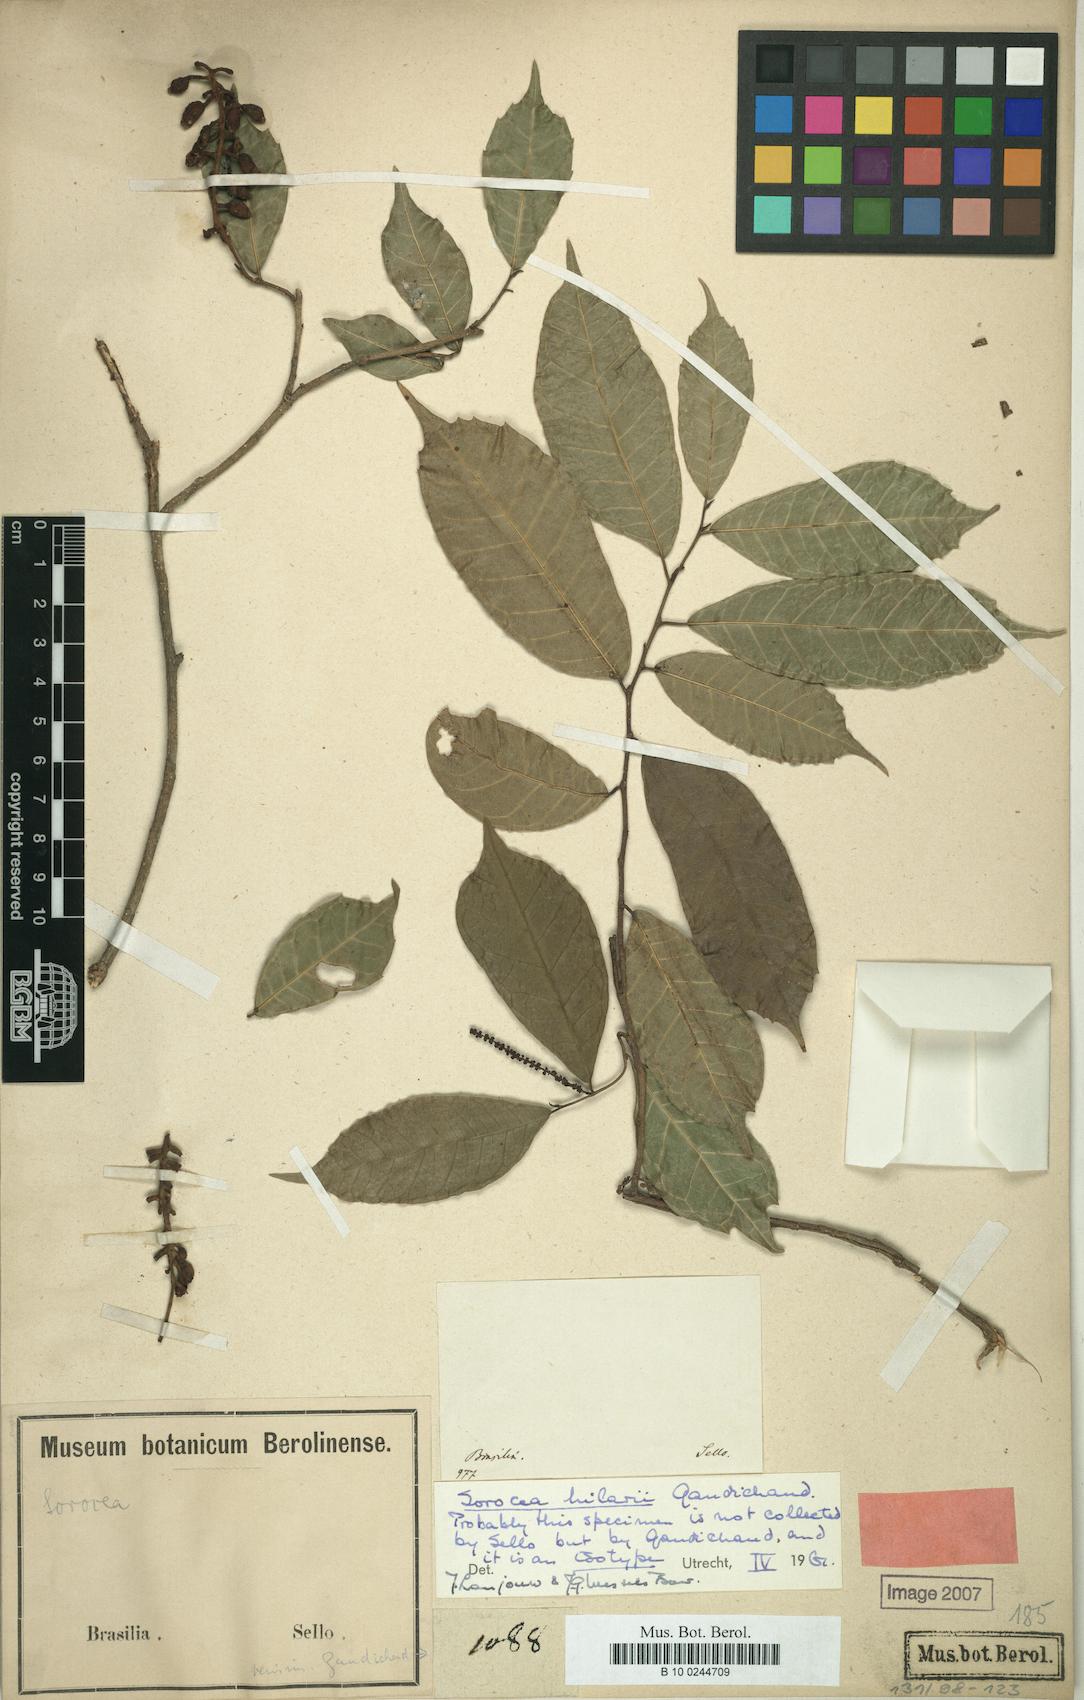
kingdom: Plantae
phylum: Tracheophyta
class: Magnoliopsida
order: Rosales
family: Moraceae
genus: Sorocea
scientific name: Sorocea hilarii
